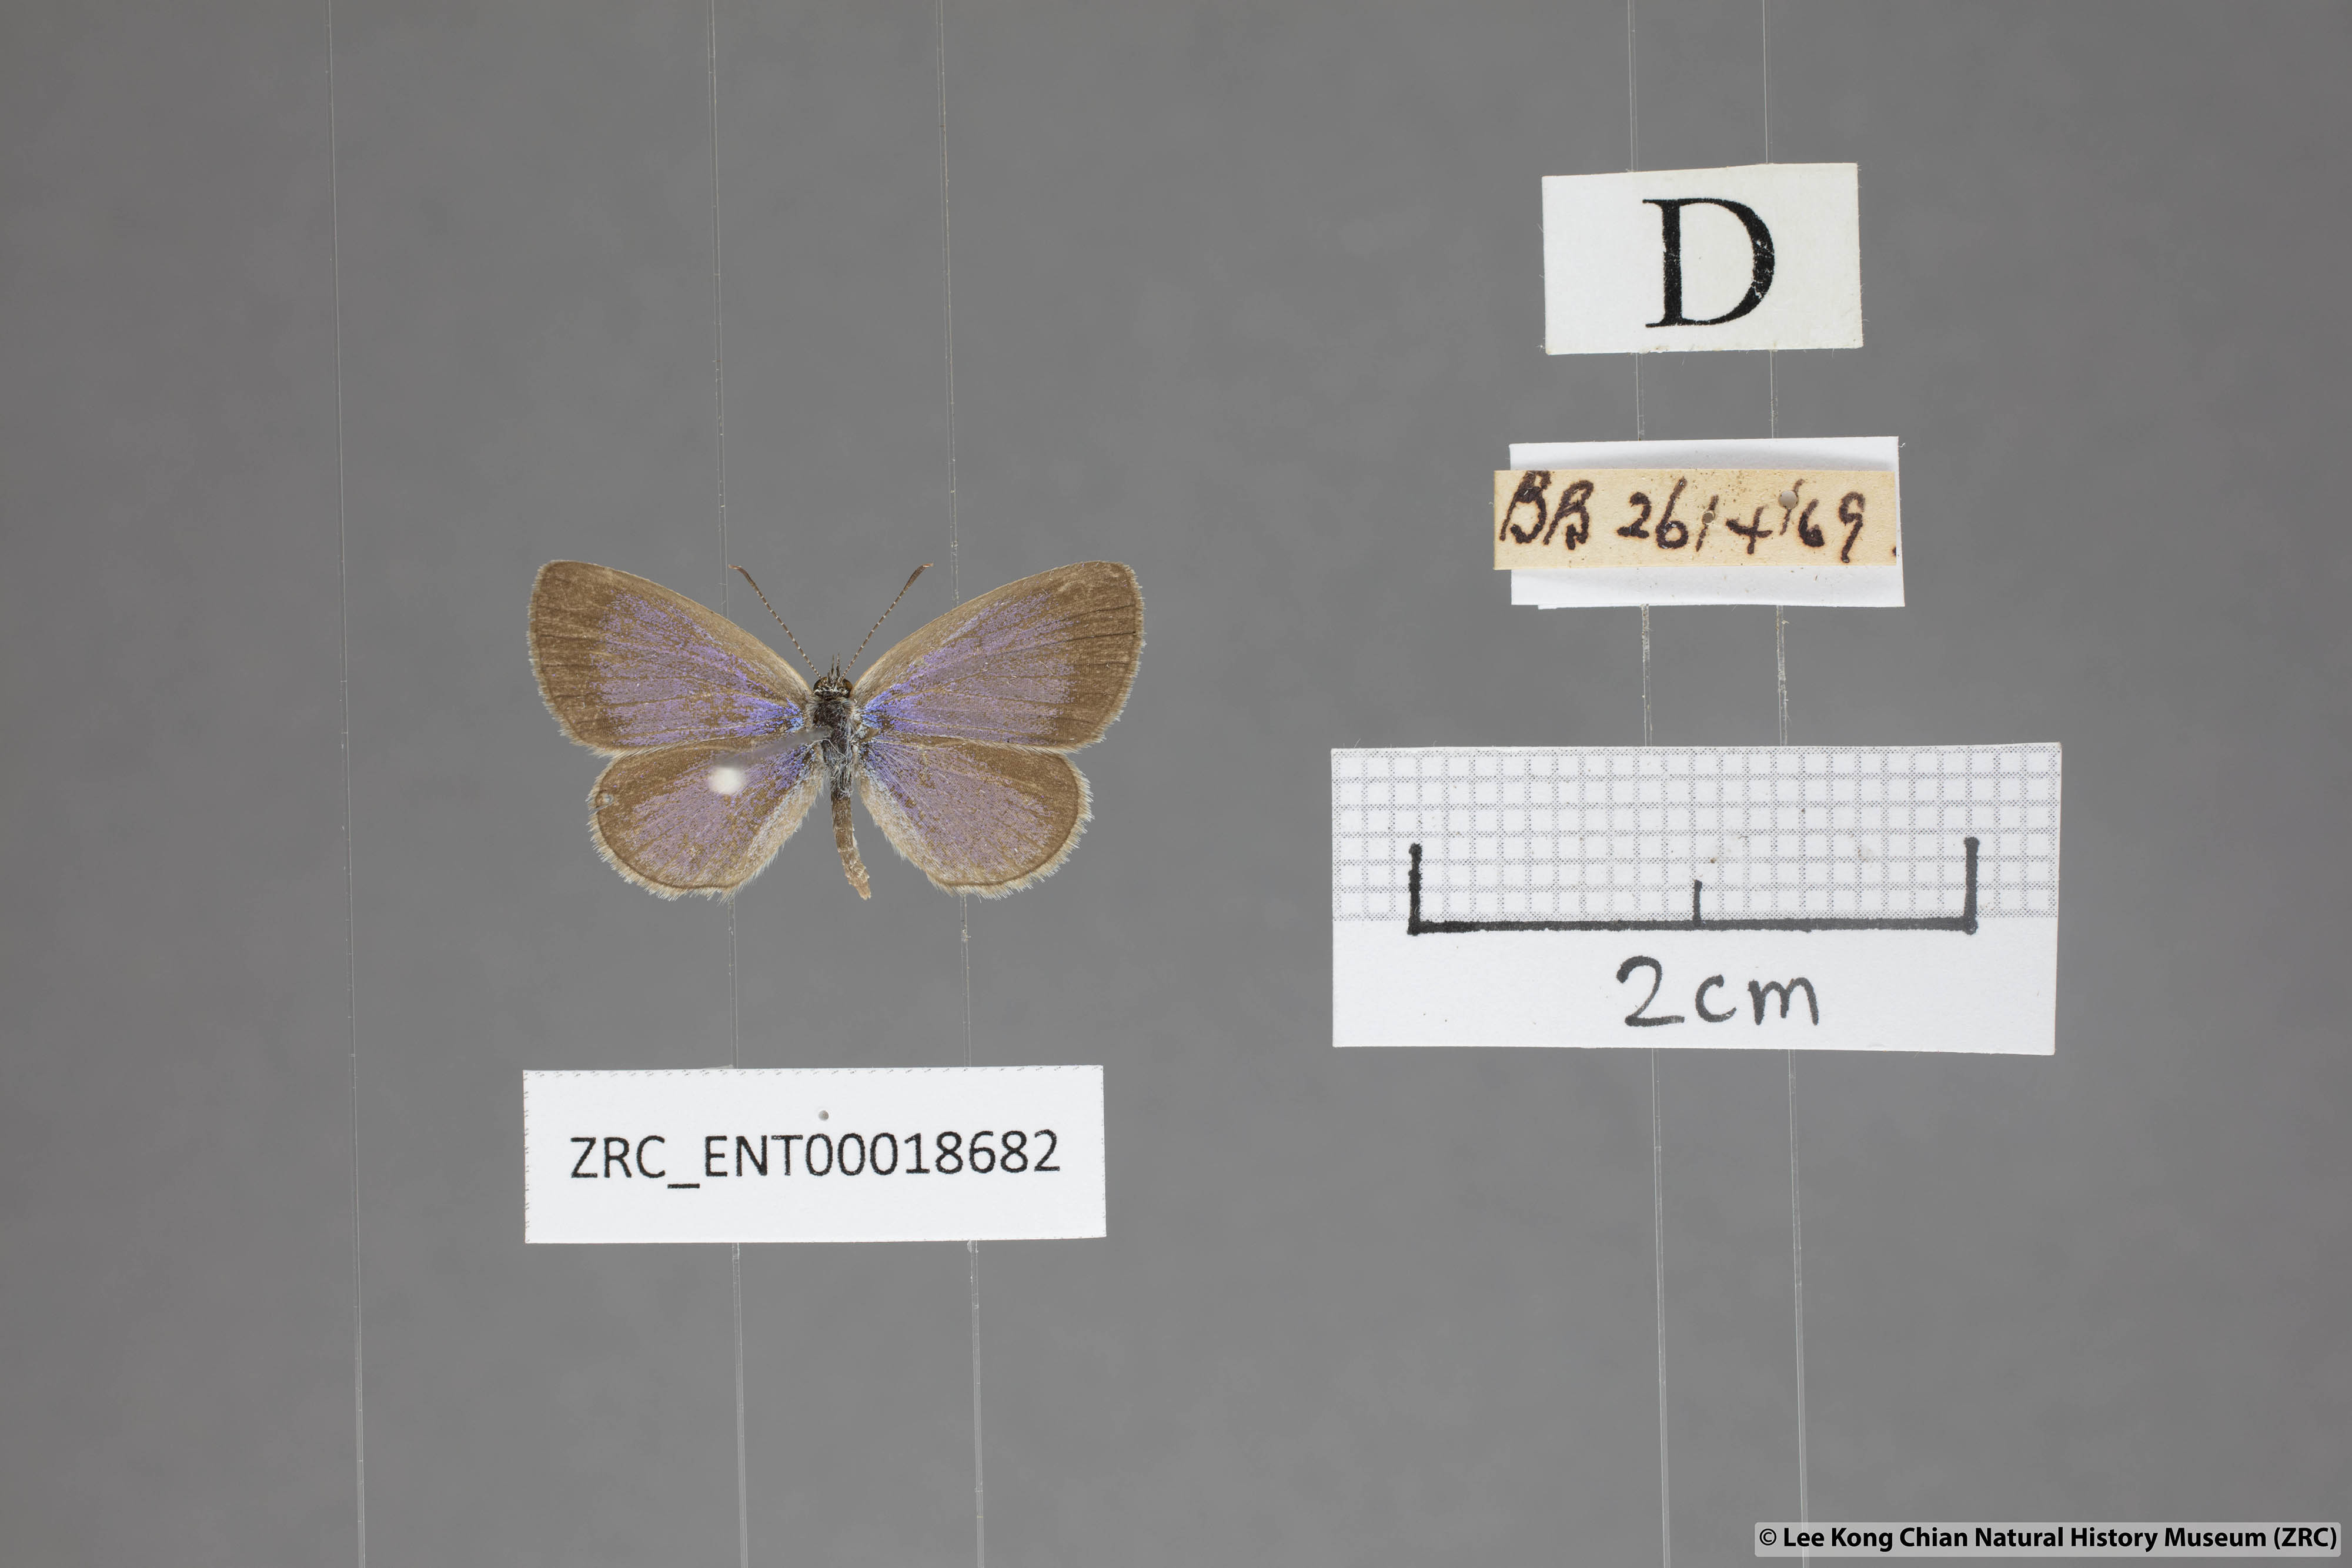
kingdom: Animalia
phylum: Arthropoda
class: Insecta
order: Lepidoptera
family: Lycaenidae
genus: Zizina
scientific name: Zizina otis
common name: Lesser grass blue
